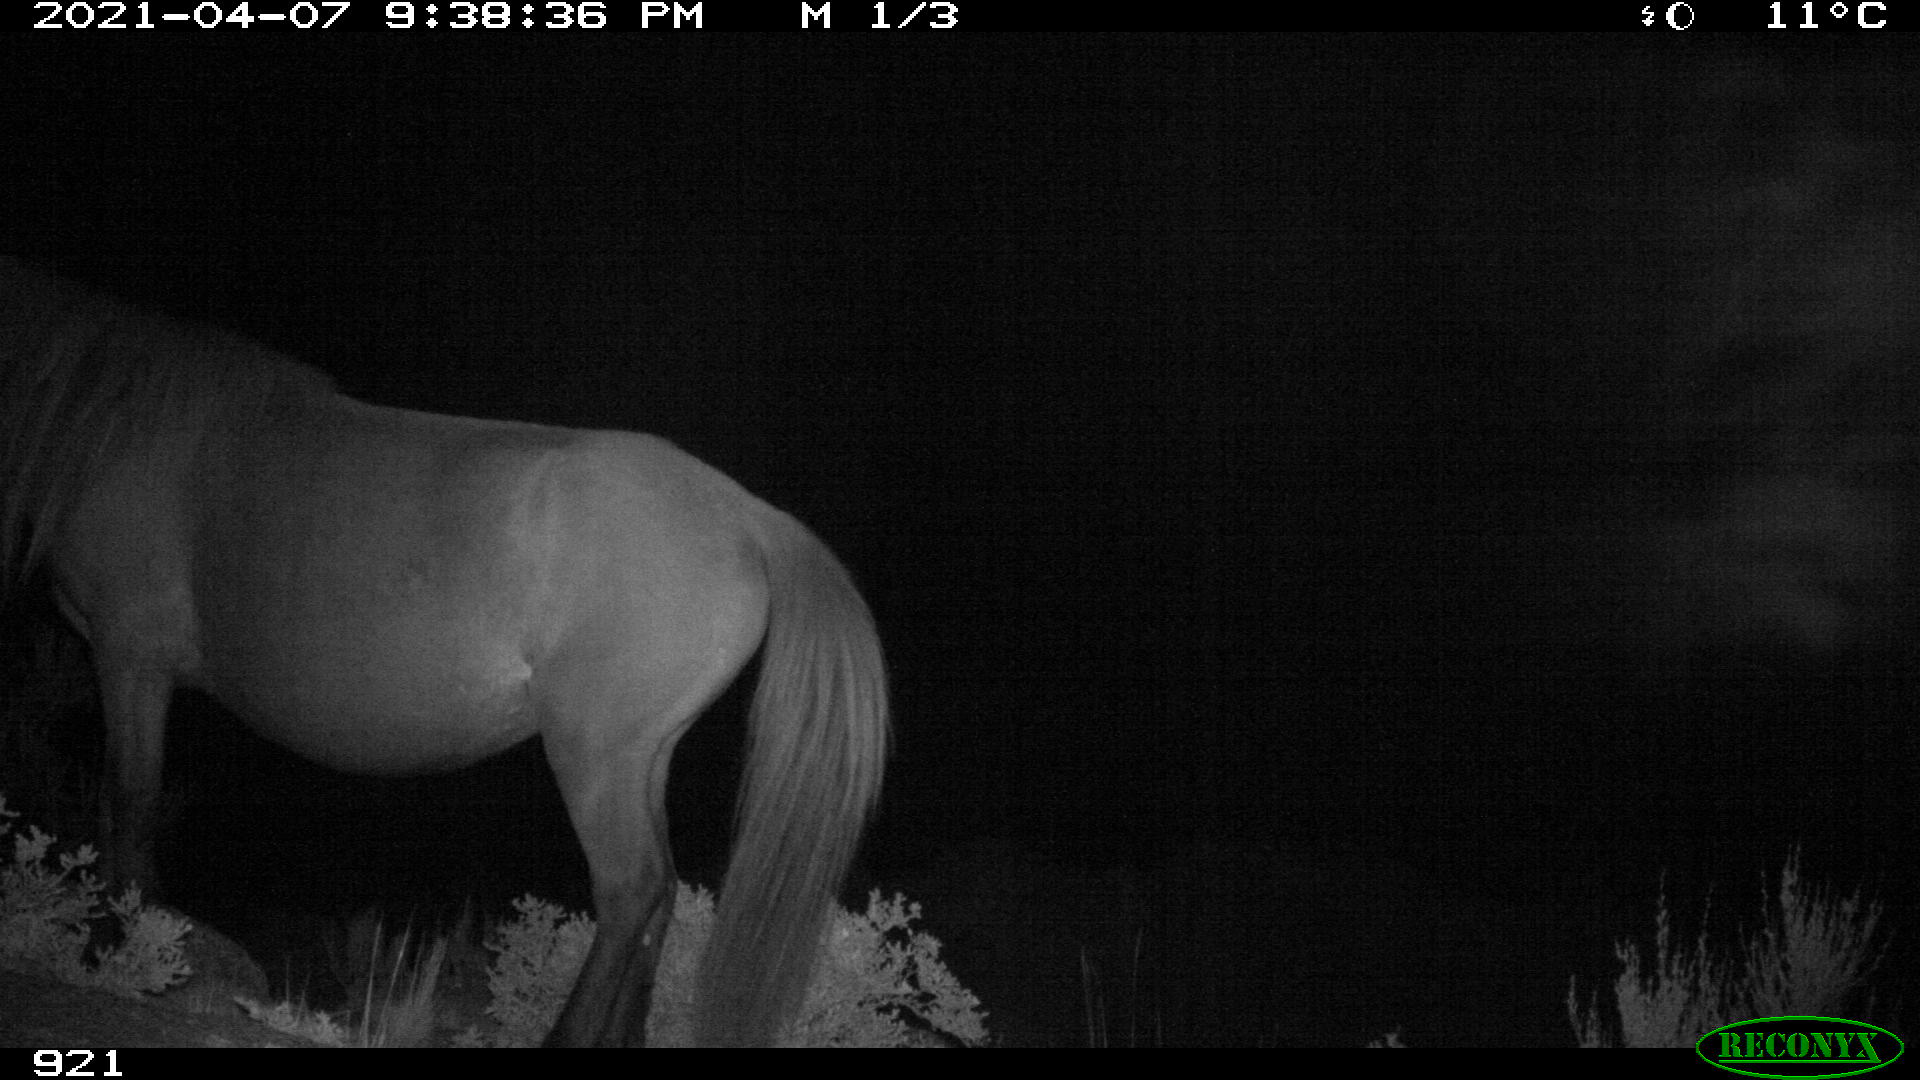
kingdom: Animalia
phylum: Chordata
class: Mammalia
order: Perissodactyla
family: Equidae
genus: Equus
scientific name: Equus caballus
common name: Horse
